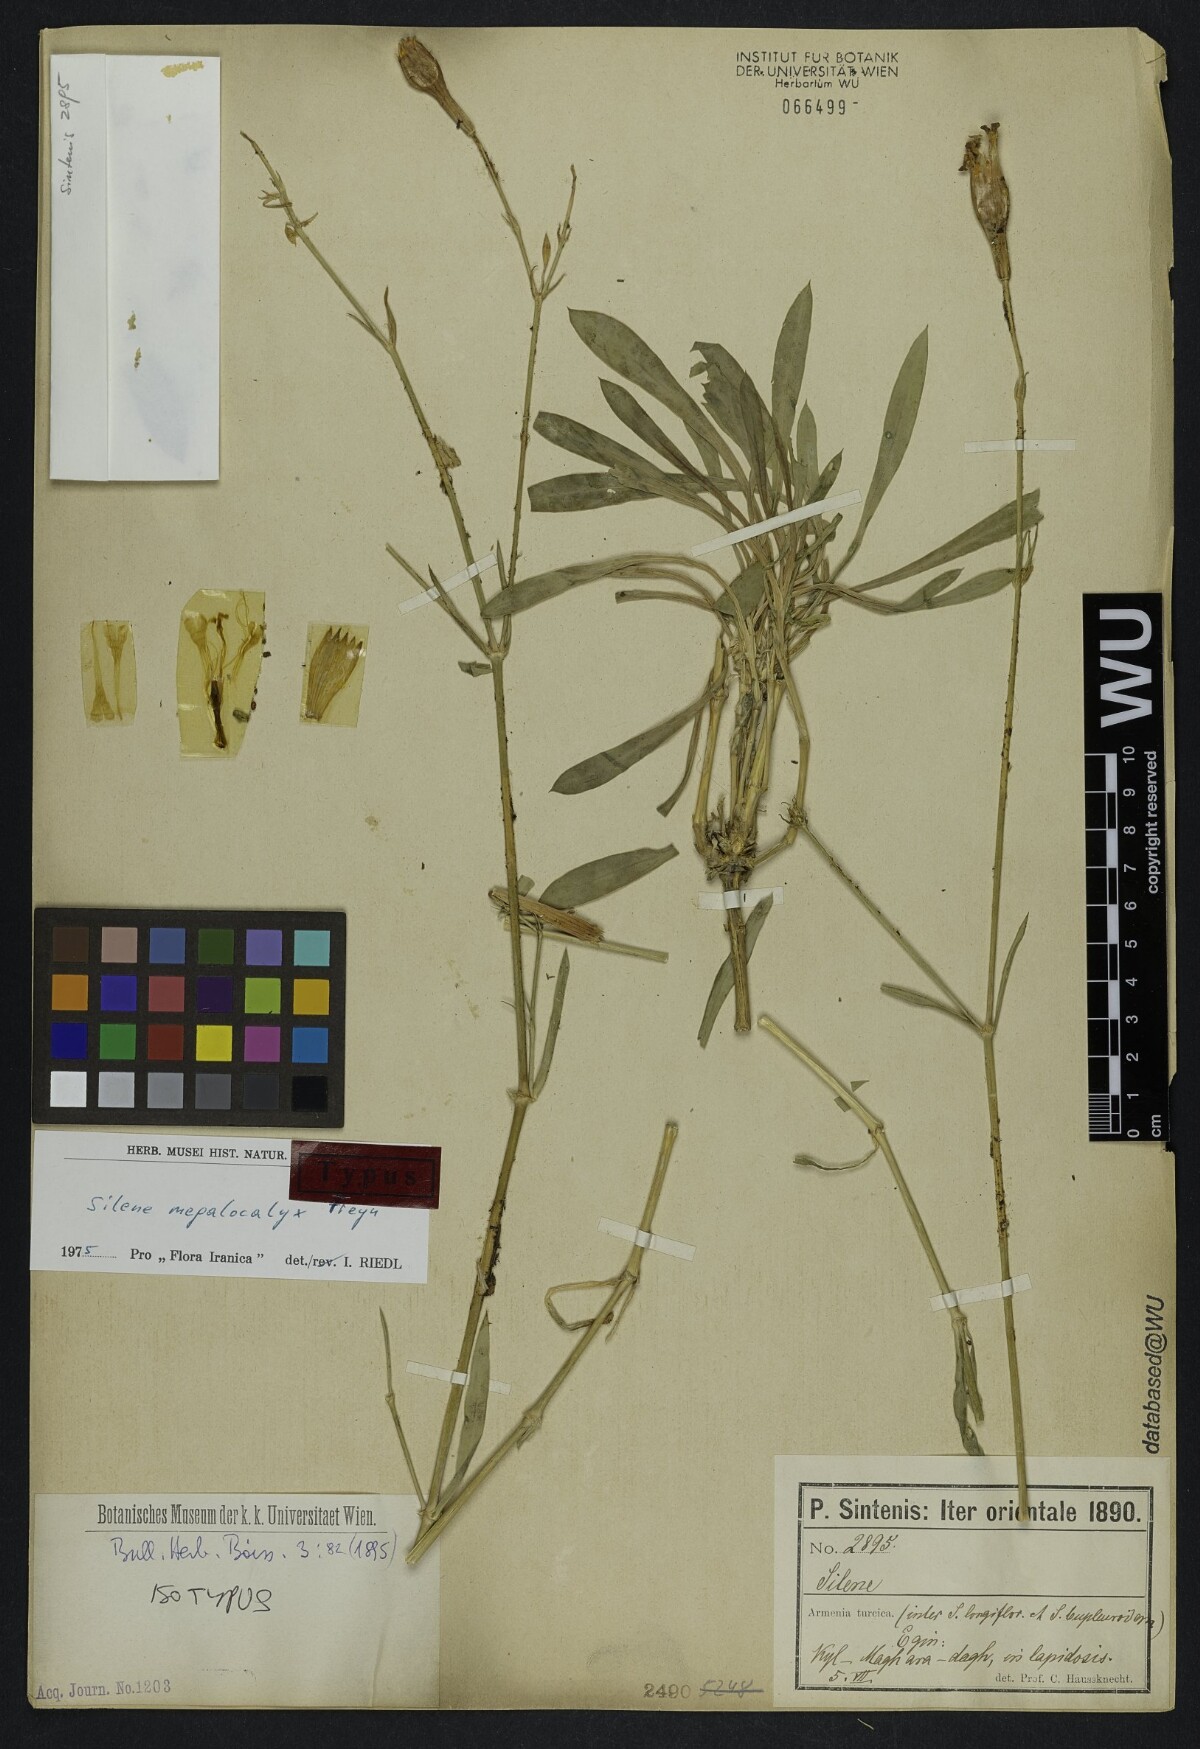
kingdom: Plantae
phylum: Tracheophyta
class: Magnoliopsida
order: Caryophyllales
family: Caryophyllaceae
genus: Silene
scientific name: Silene bupleuroides
